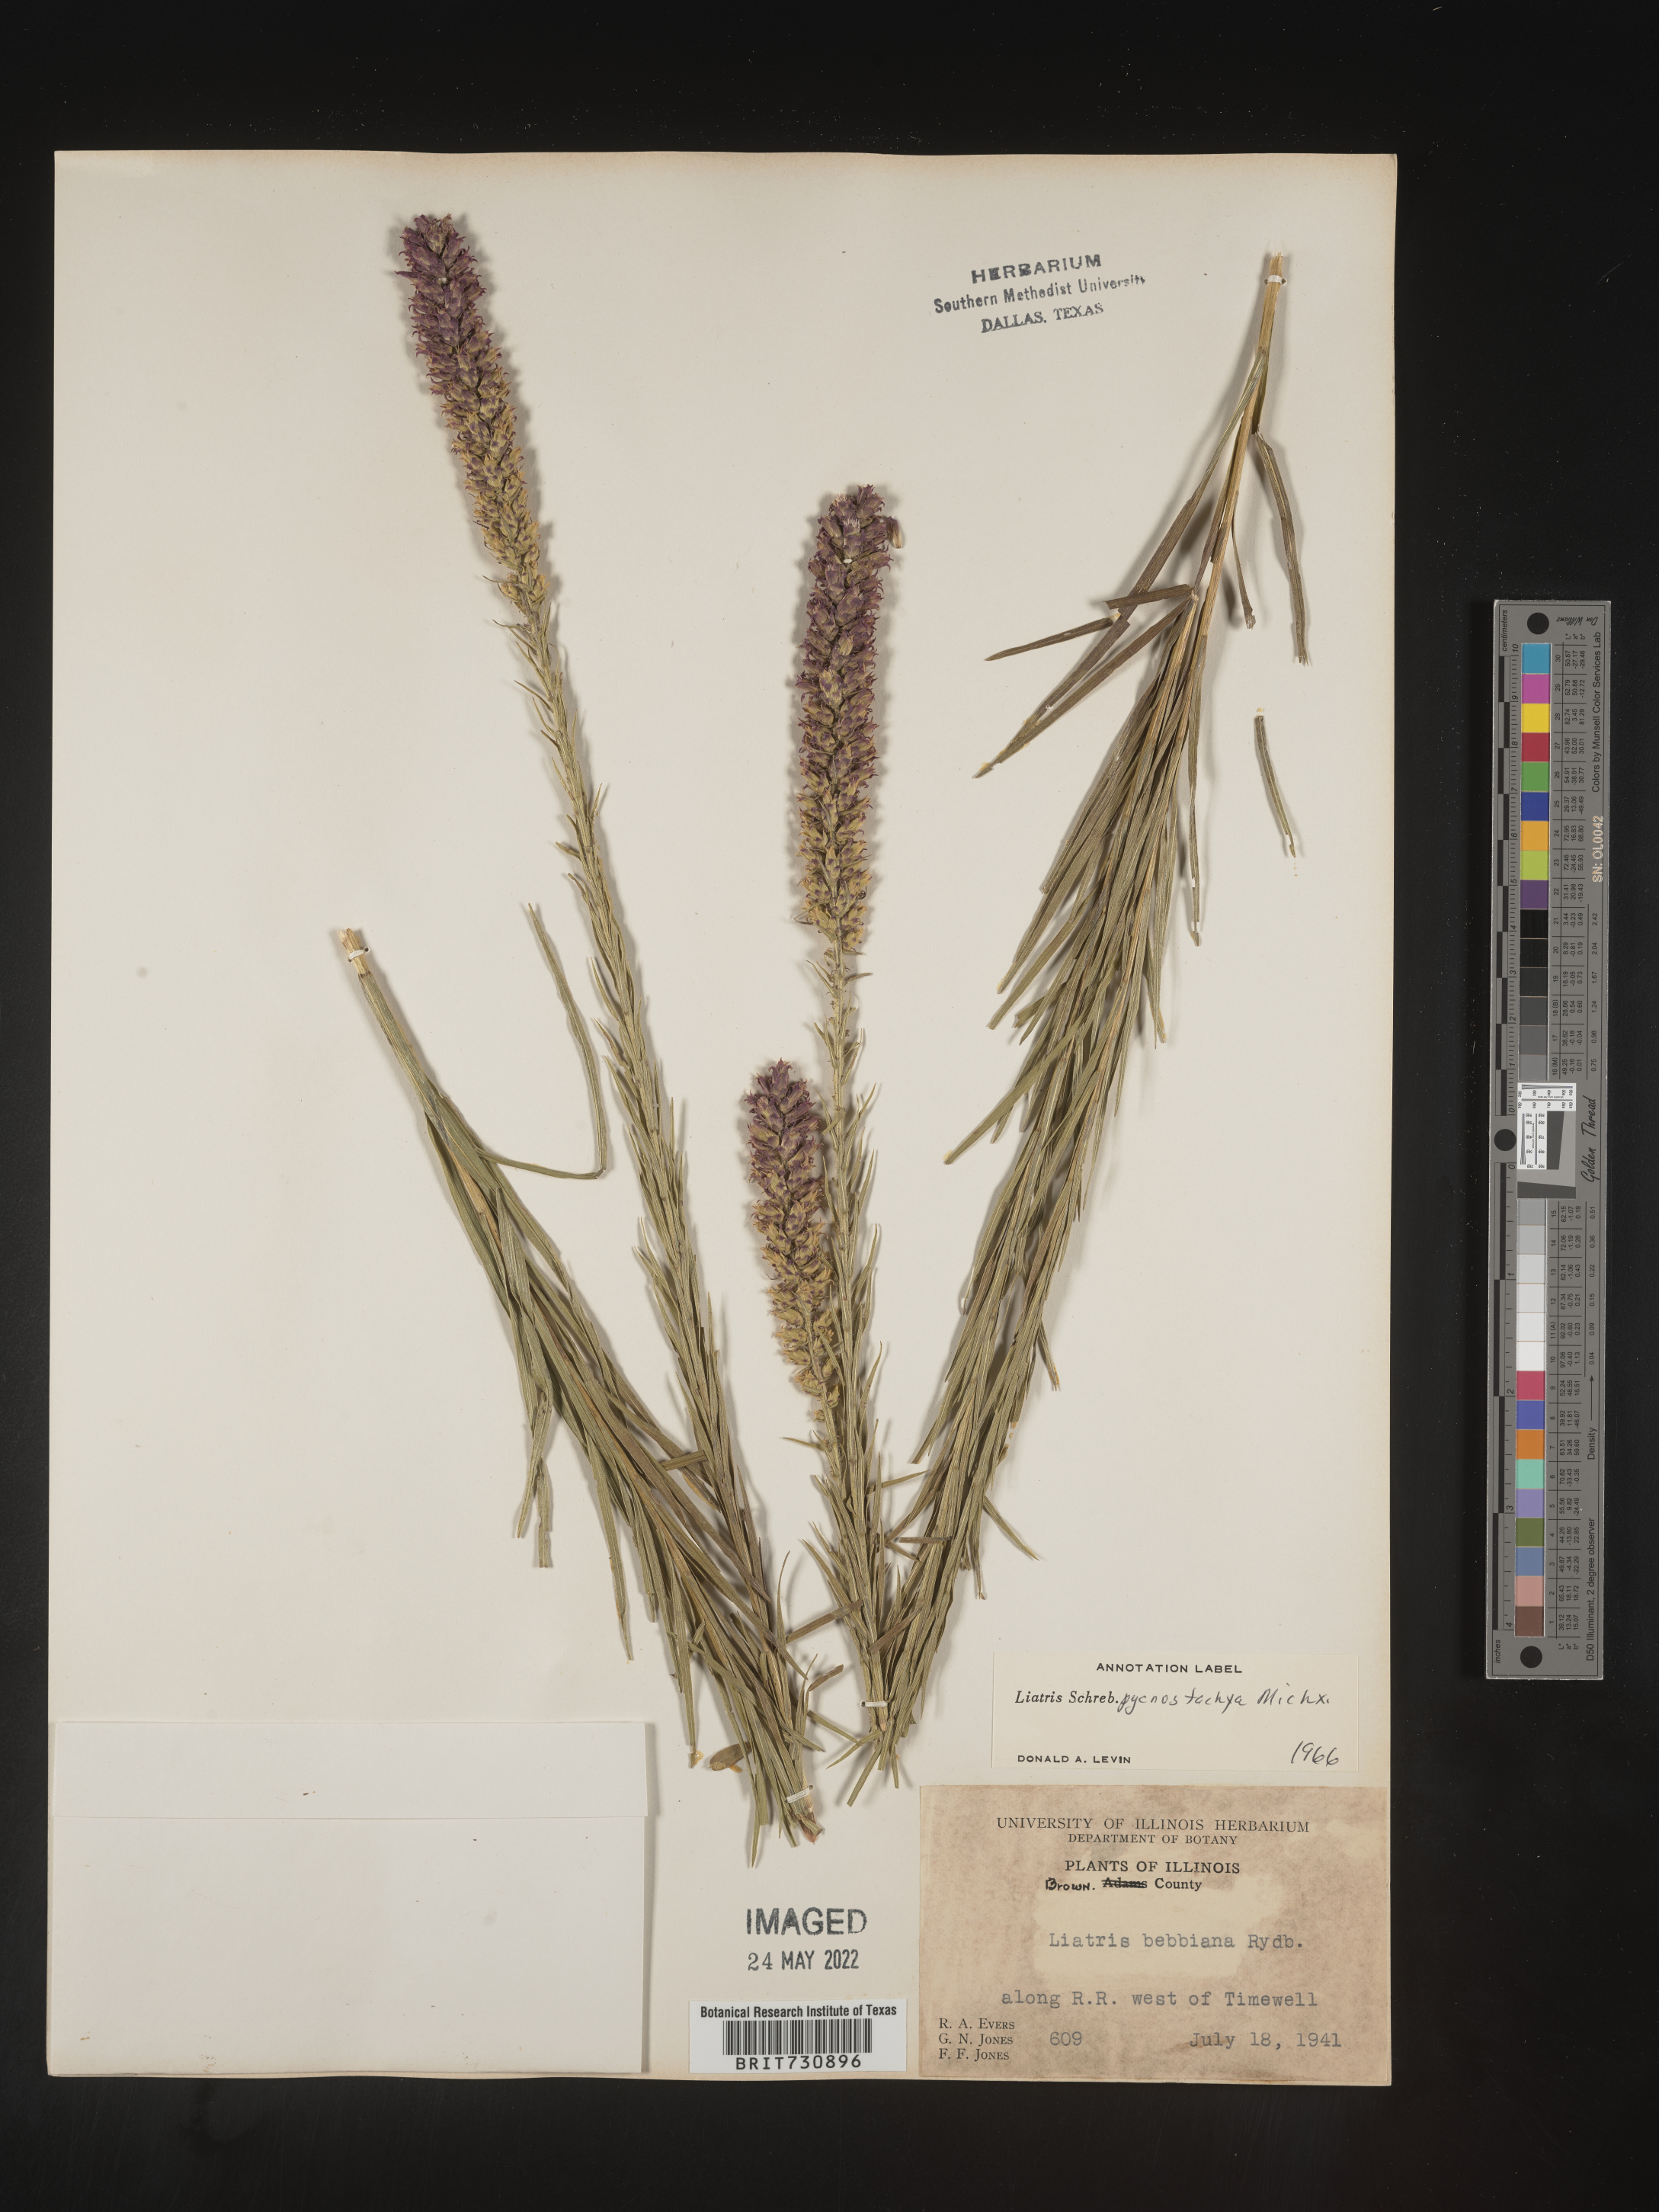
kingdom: Plantae
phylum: Tracheophyta
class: Magnoliopsida
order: Asterales
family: Asteraceae
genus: Liatris
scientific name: Liatris pycnostachya
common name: Cattail gayfeather
